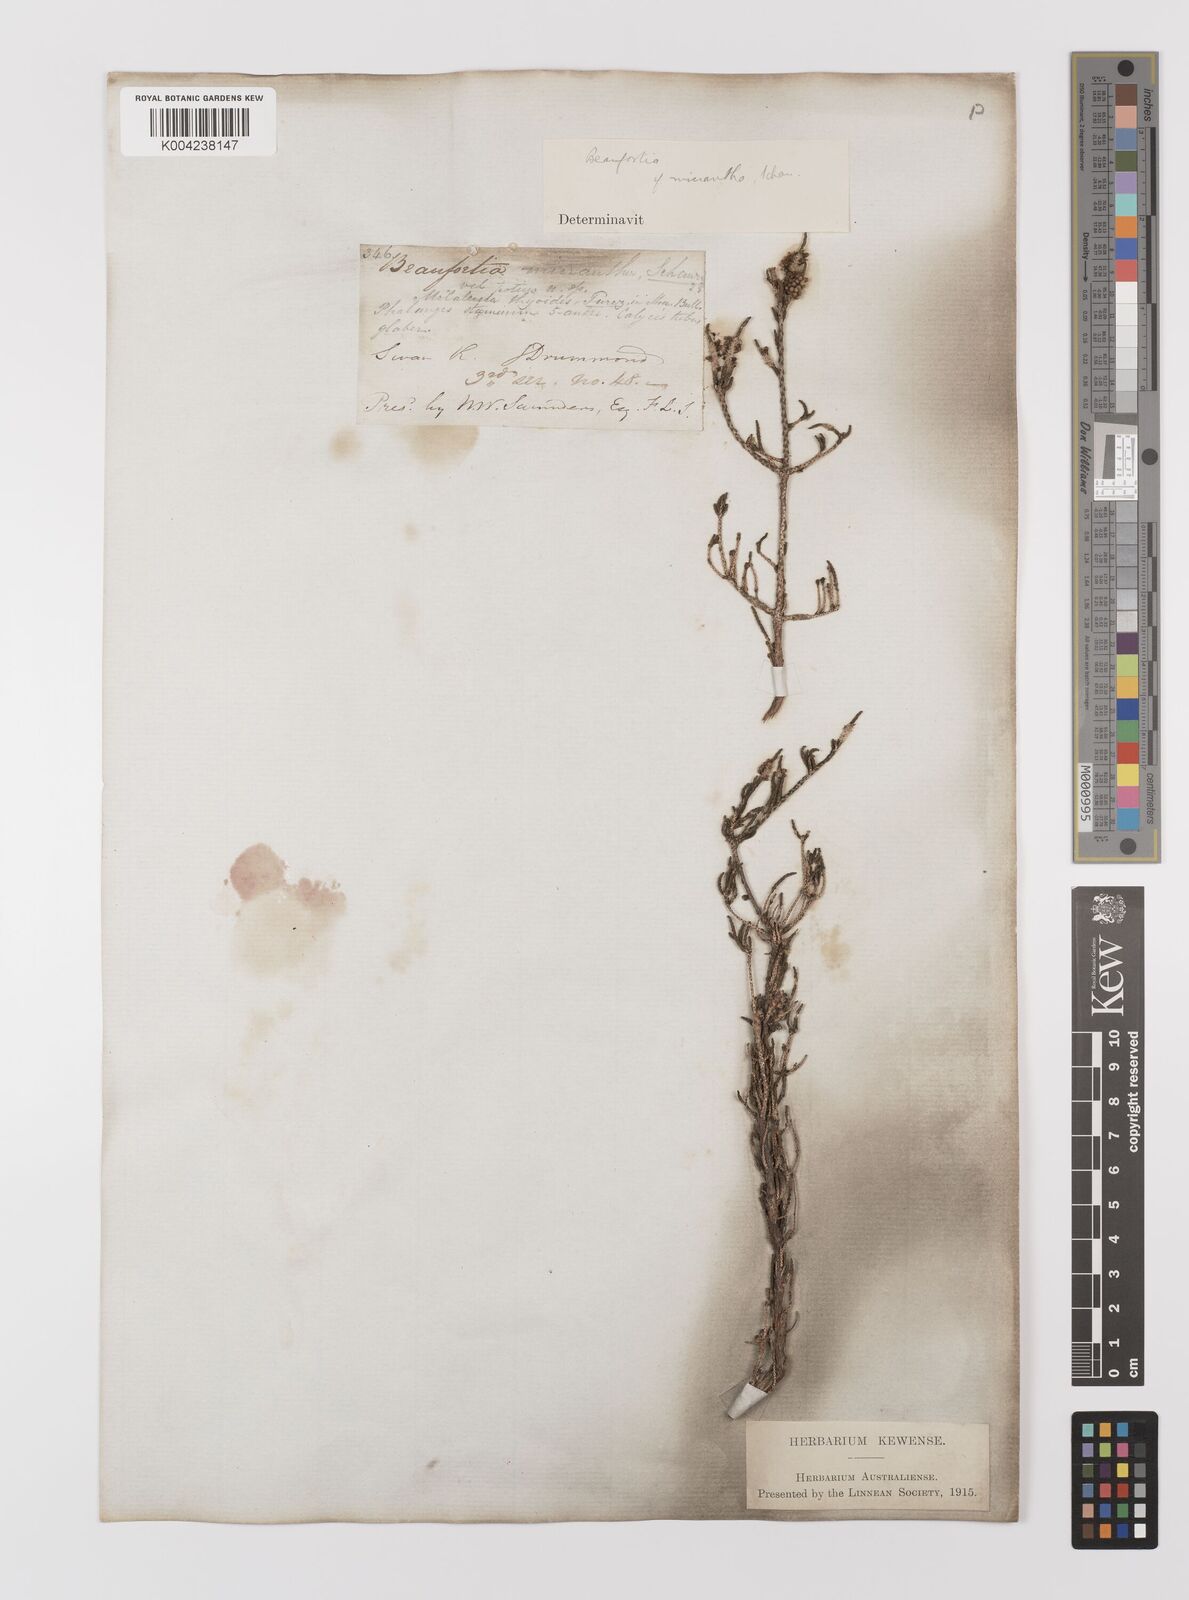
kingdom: Plantae
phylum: Tracheophyta
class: Magnoliopsida
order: Myrtales
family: Myrtaceae
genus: Melaleuca
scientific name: Melaleuca micrantha
